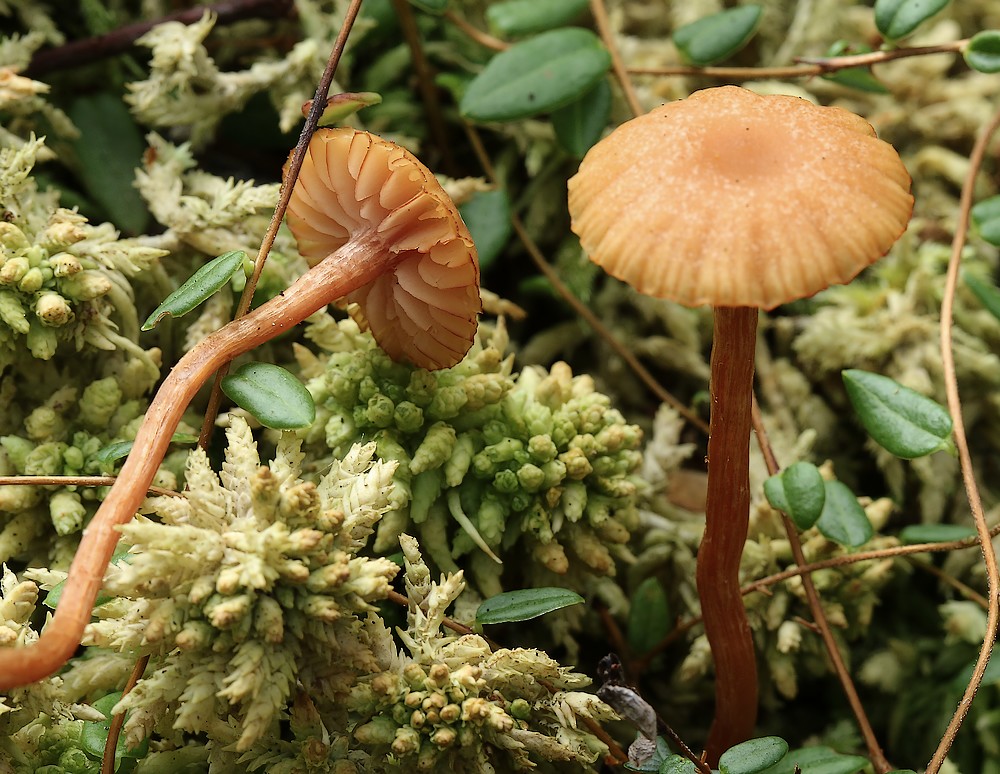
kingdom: Fungi
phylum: Basidiomycota
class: Agaricomycetes
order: Agaricales
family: Hydnangiaceae
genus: Laccaria
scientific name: Laccaria laccata
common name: rød ametysthat
